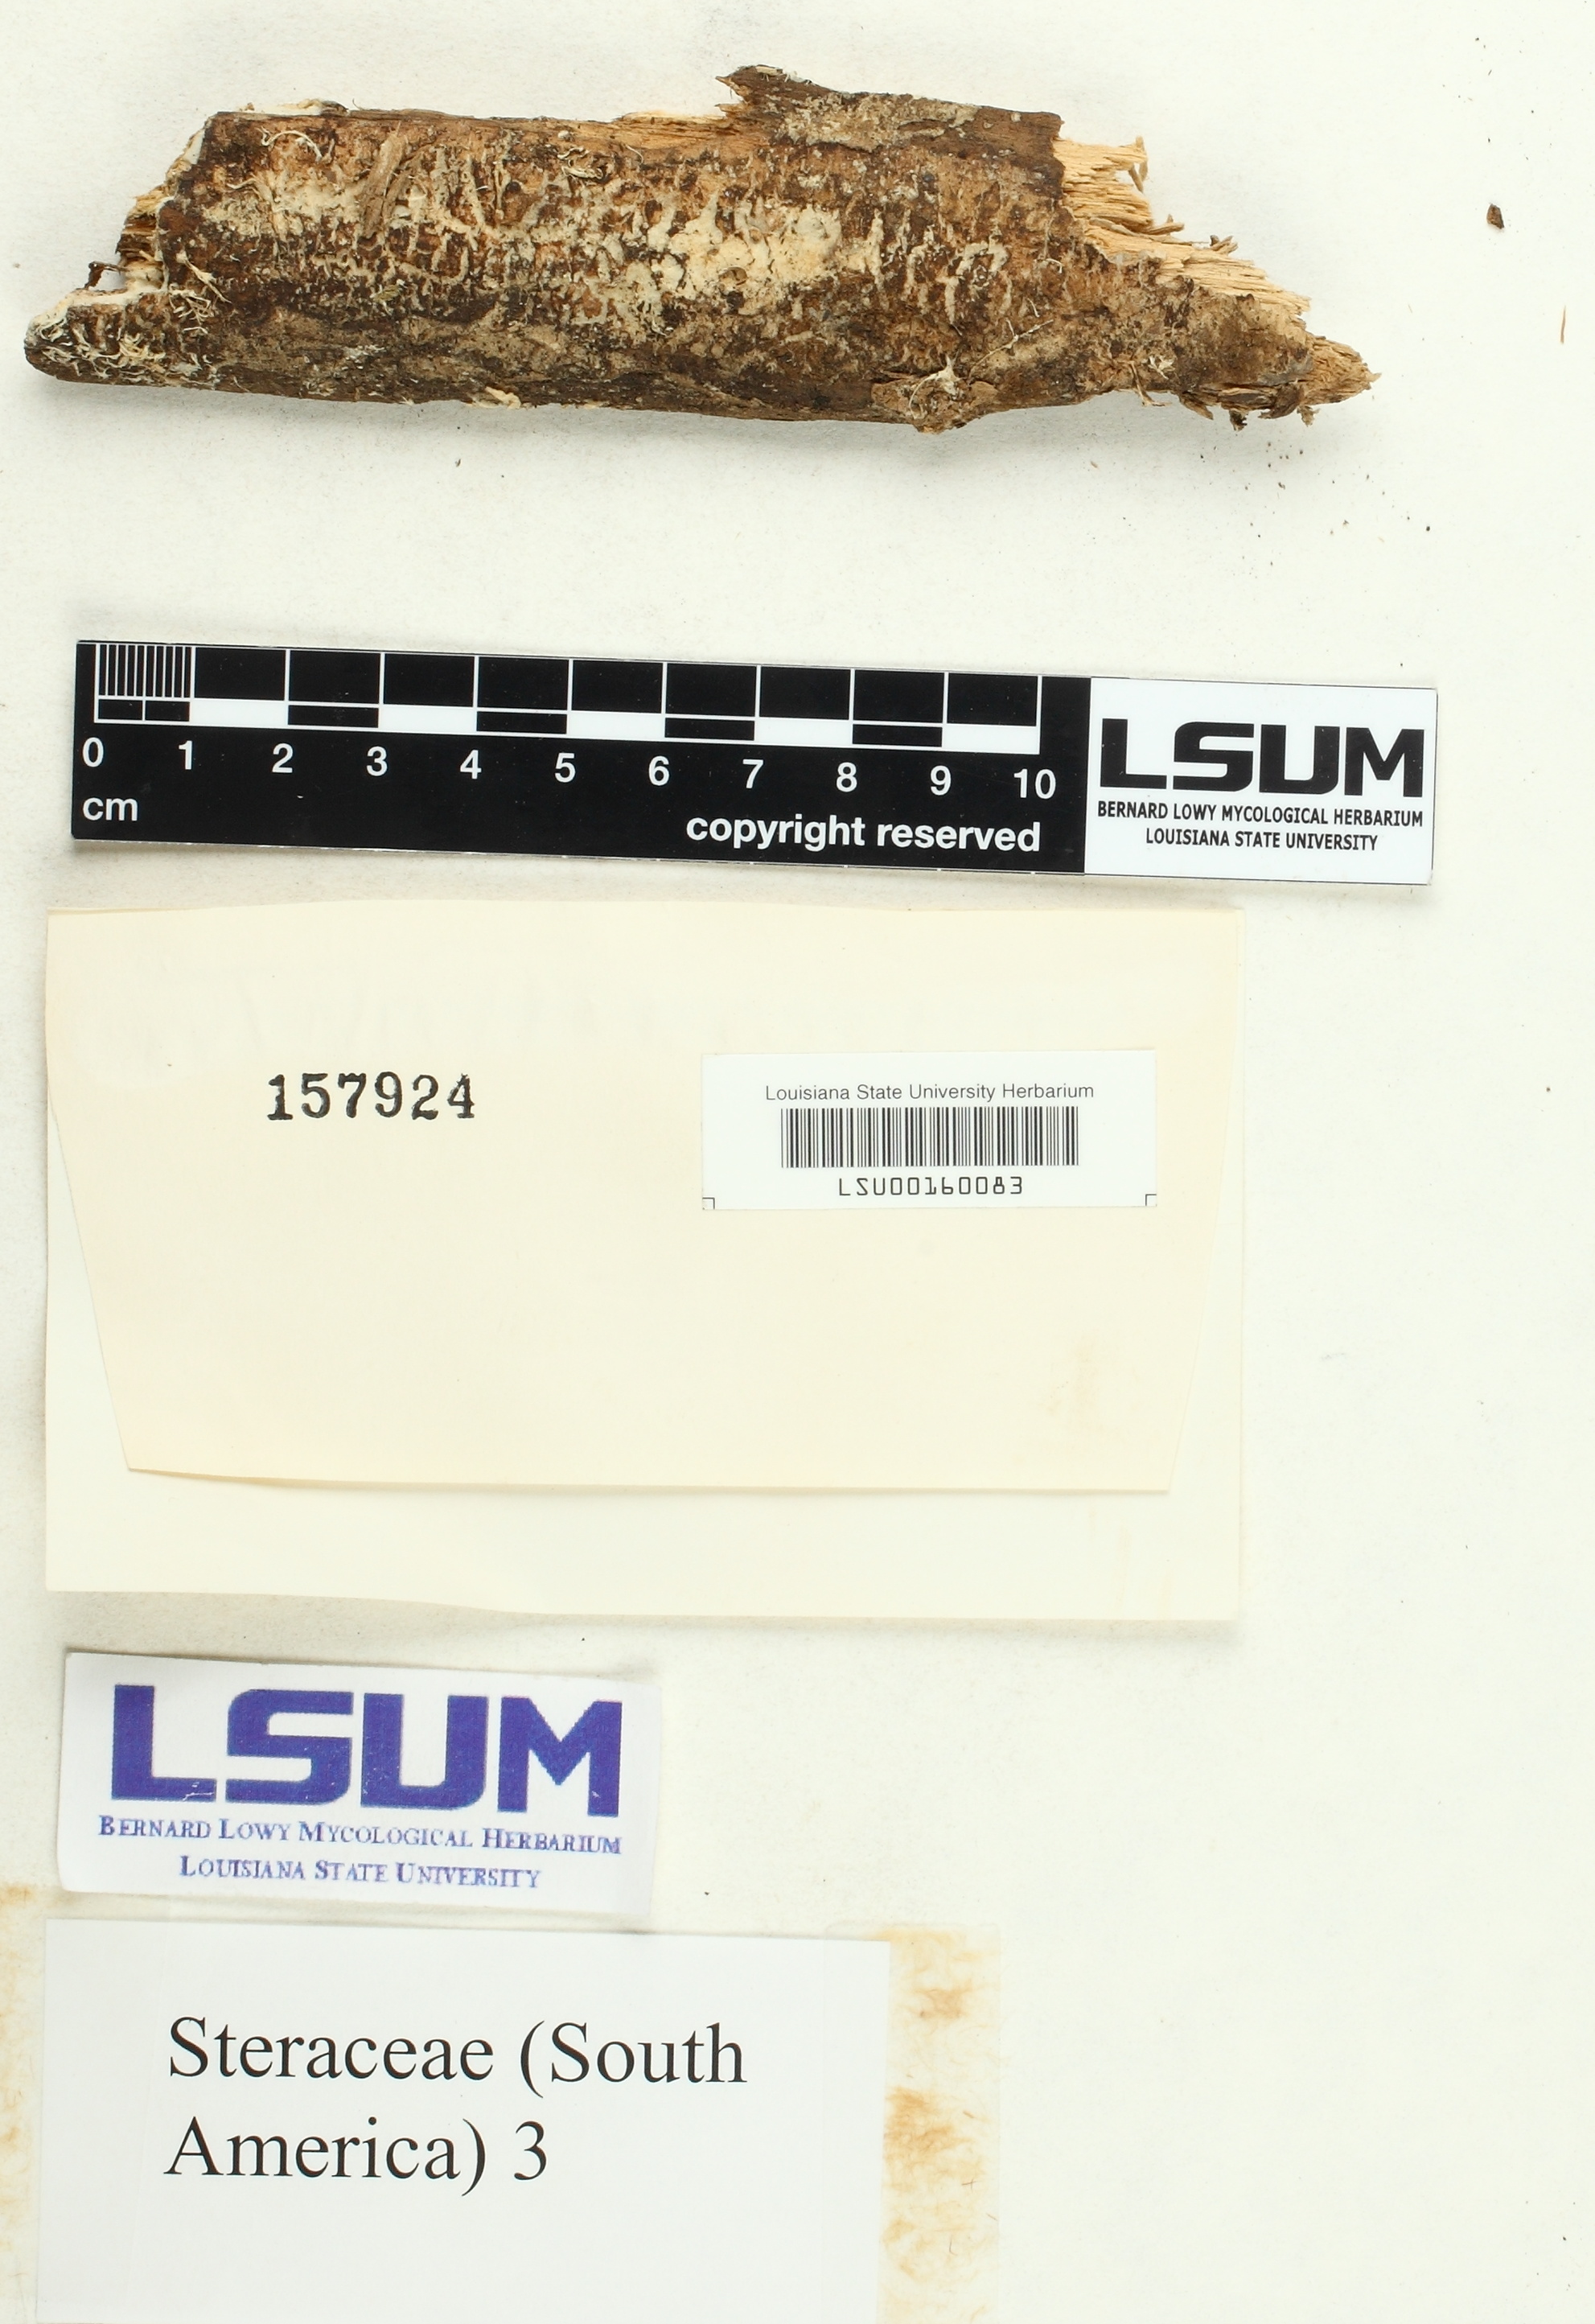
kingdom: Fungi
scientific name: Fungi
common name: Fungi
